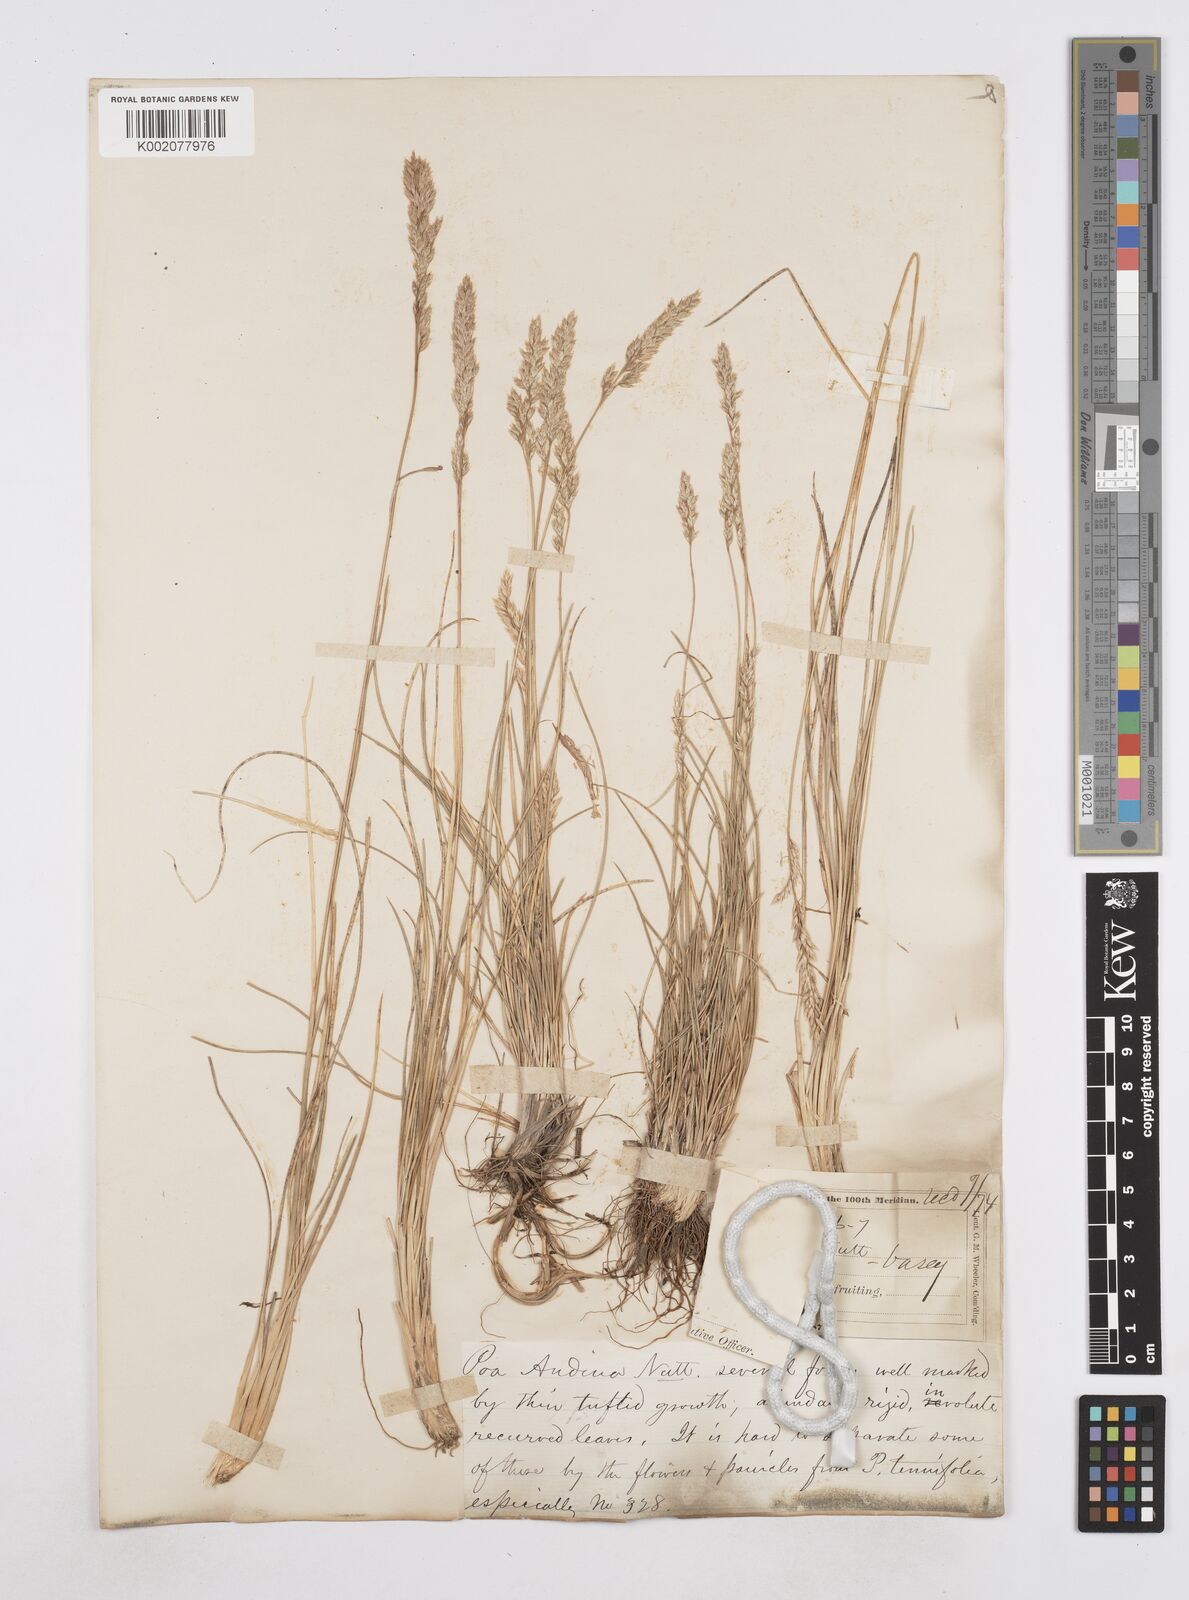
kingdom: Plantae
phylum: Tracheophyta
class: Liliopsida
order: Poales
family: Poaceae
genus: Poa
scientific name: Poa arida
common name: Plains bluegrass
